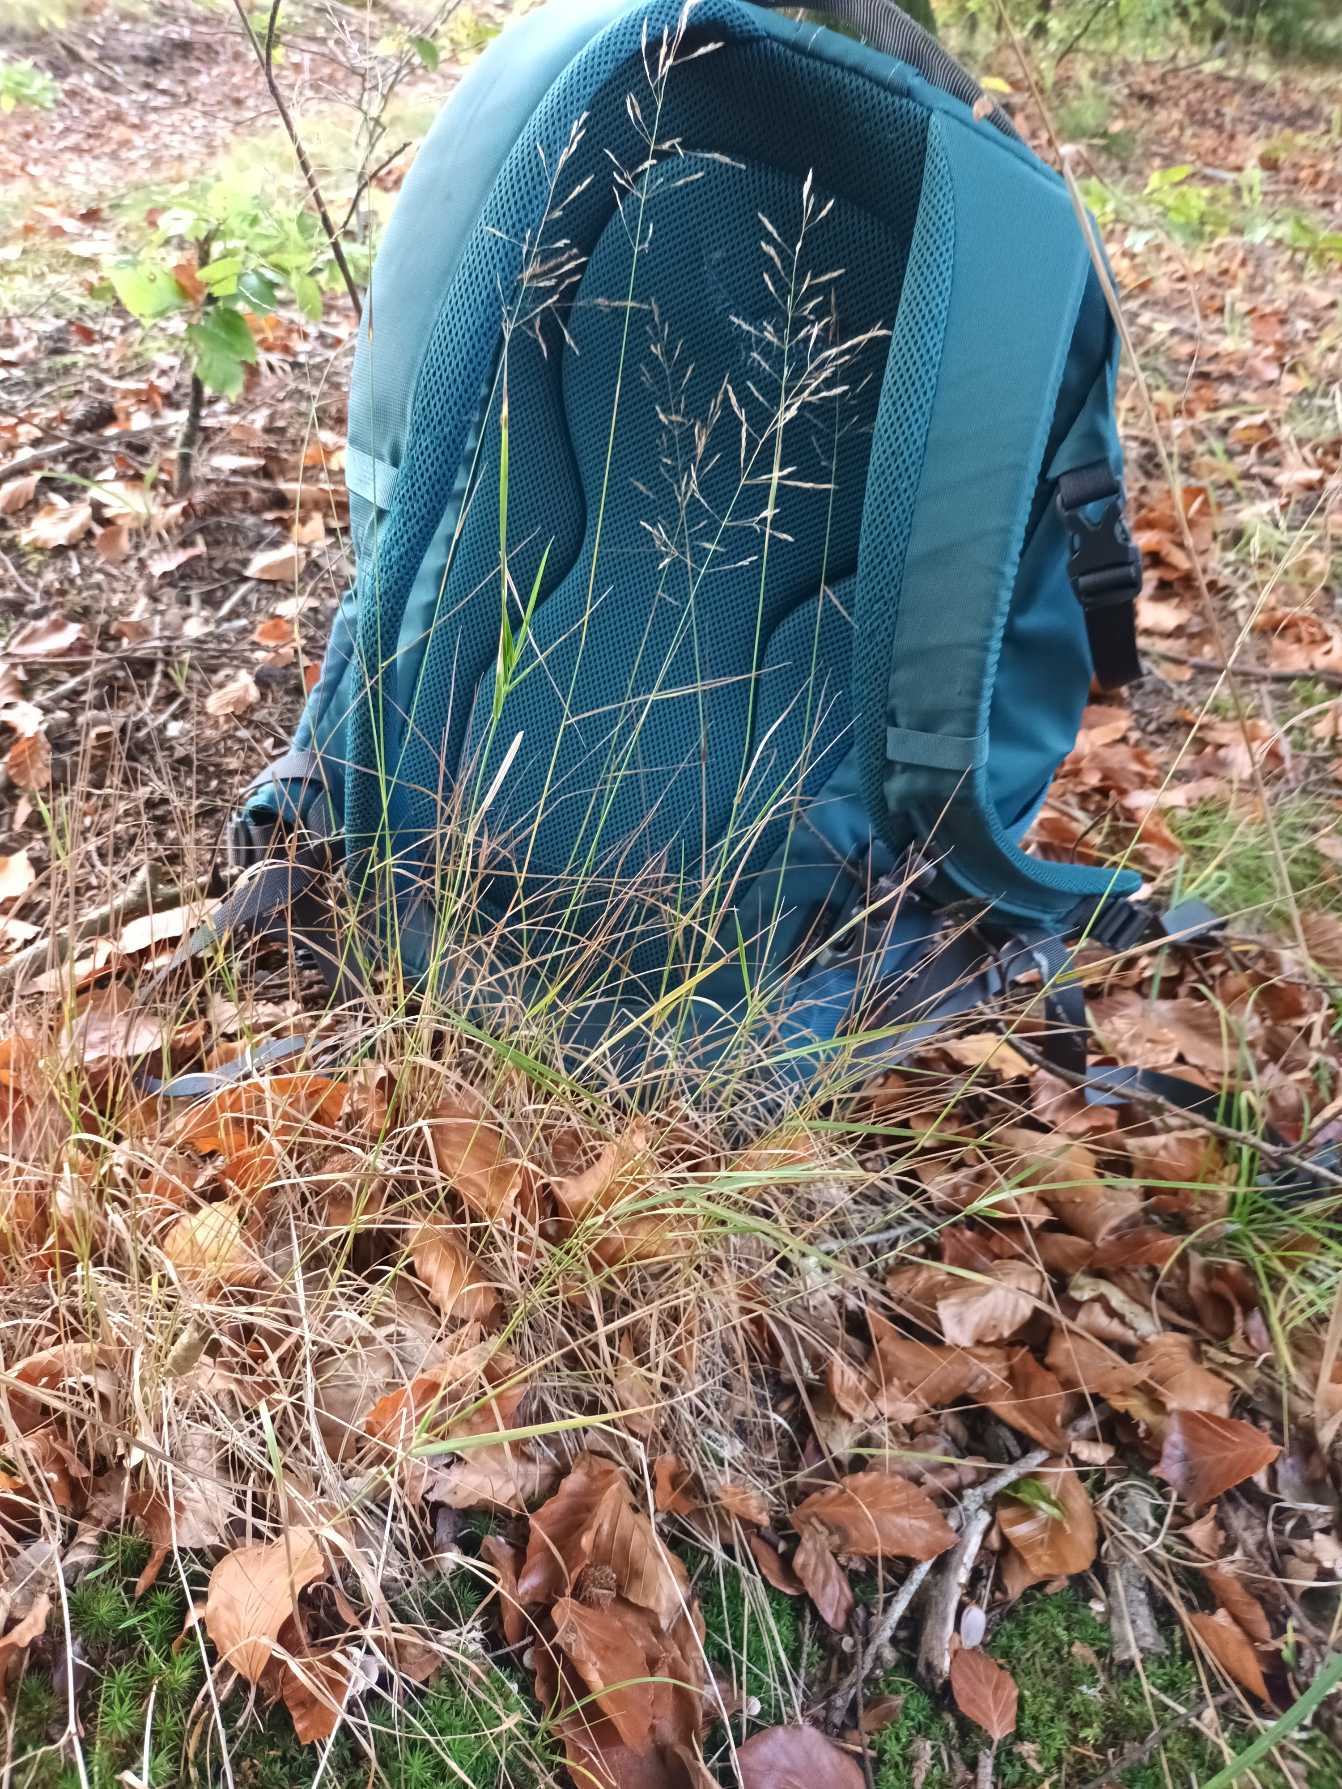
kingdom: Plantae
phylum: Tracheophyta
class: Liliopsida
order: Poales
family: Poaceae
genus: Poa
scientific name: Poa nemoralis
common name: Lund-rapgræs
